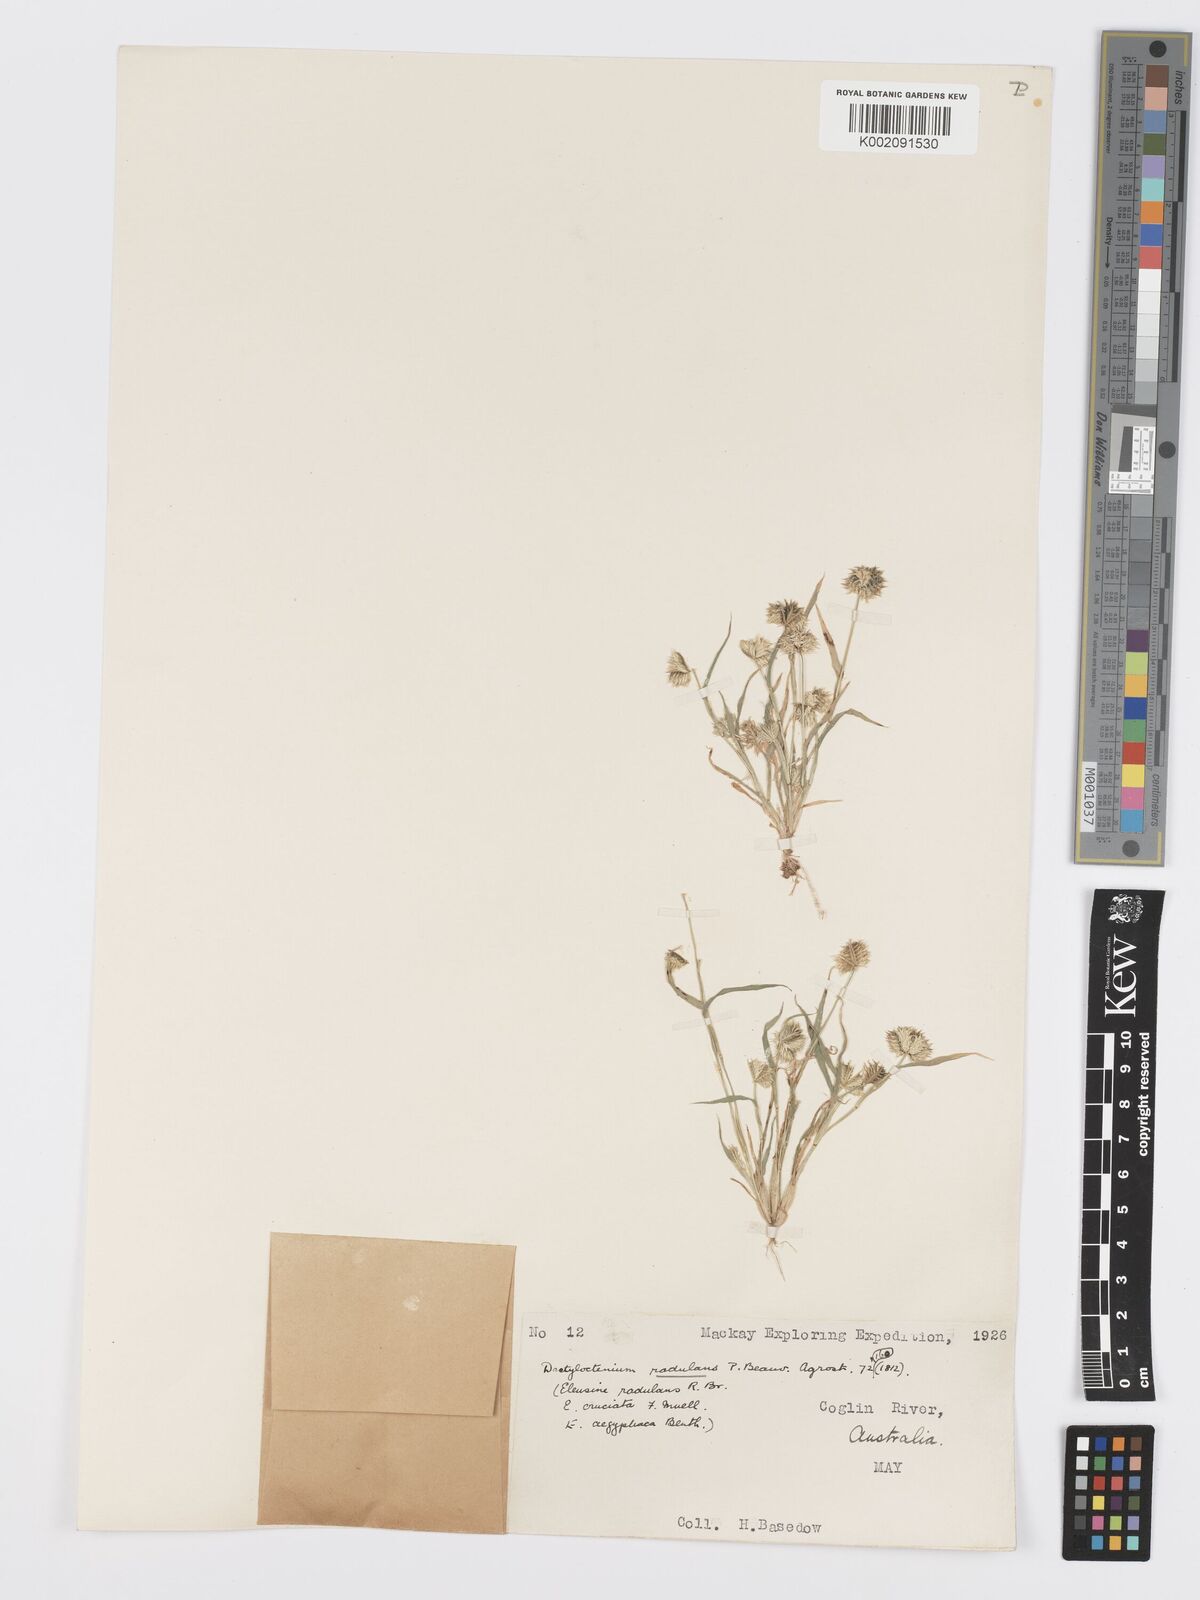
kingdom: Plantae
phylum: Tracheophyta
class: Liliopsida
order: Poales
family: Poaceae
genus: Dactyloctenium
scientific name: Dactyloctenium radulans
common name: Button-grass
